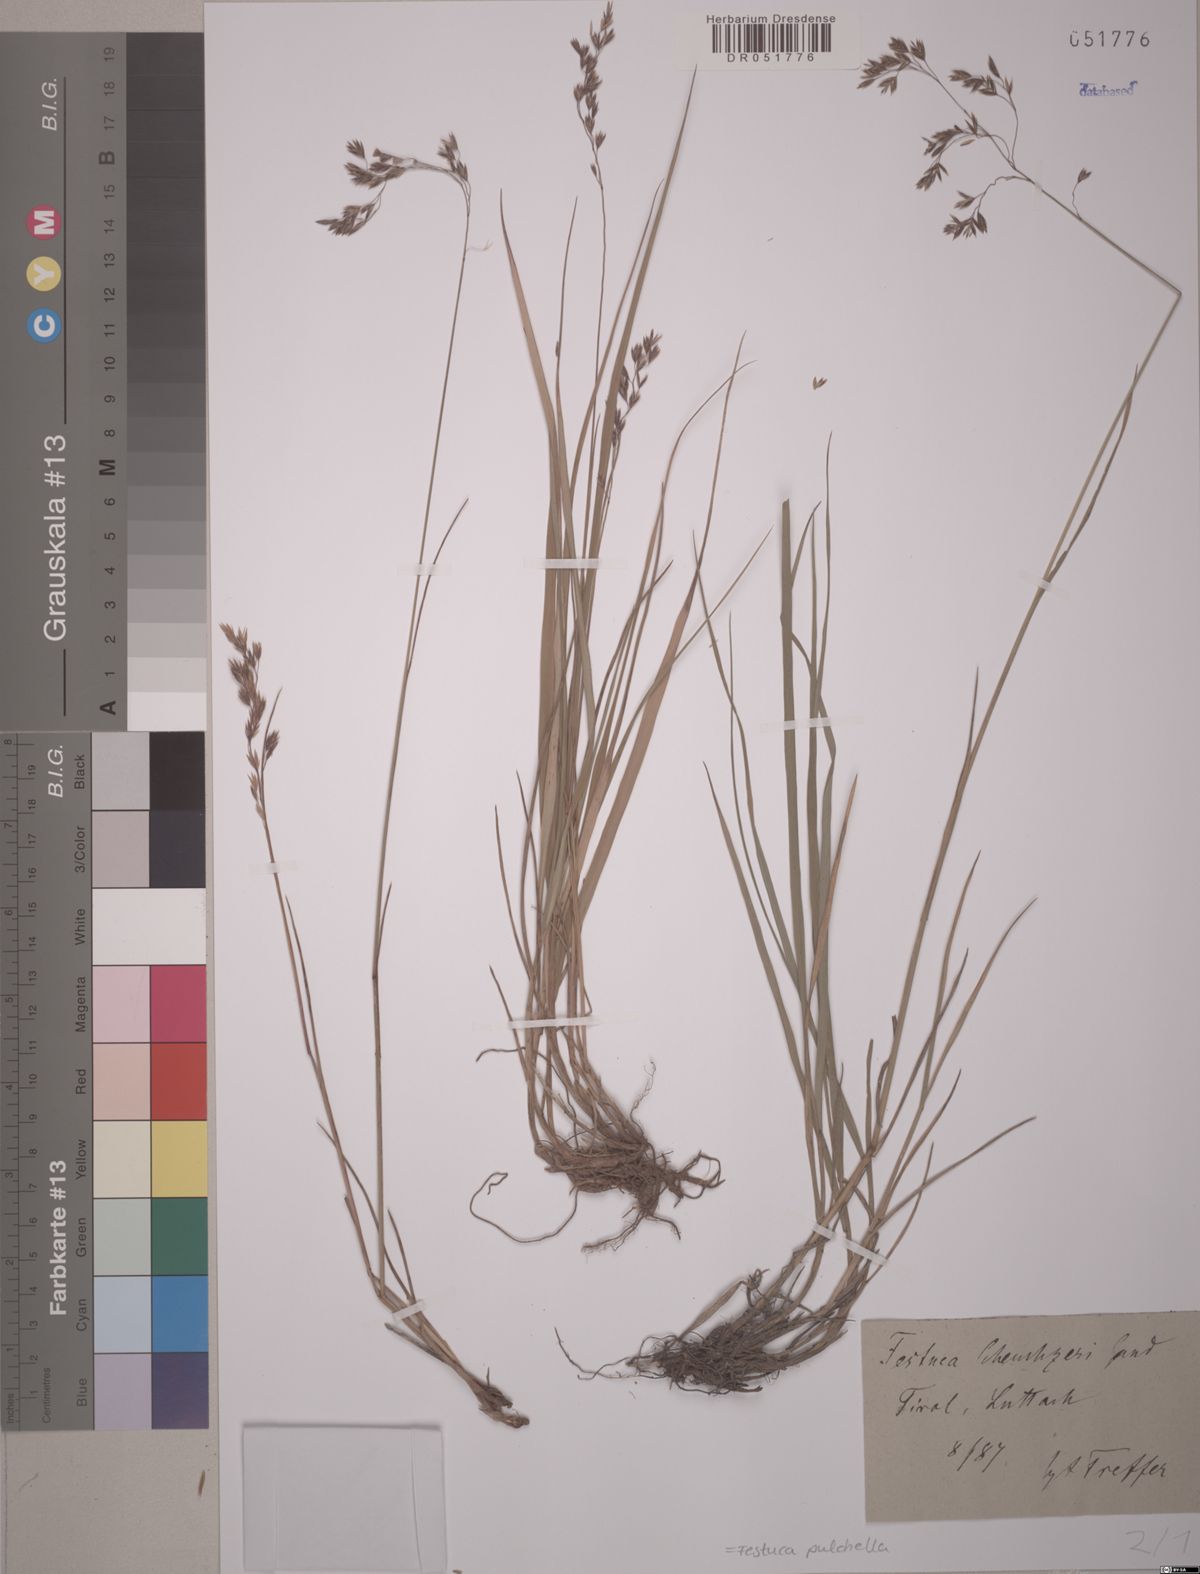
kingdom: Plantae
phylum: Tracheophyta
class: Liliopsida
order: Poales
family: Poaceae
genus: Festuca
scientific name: Festuca pulchella
